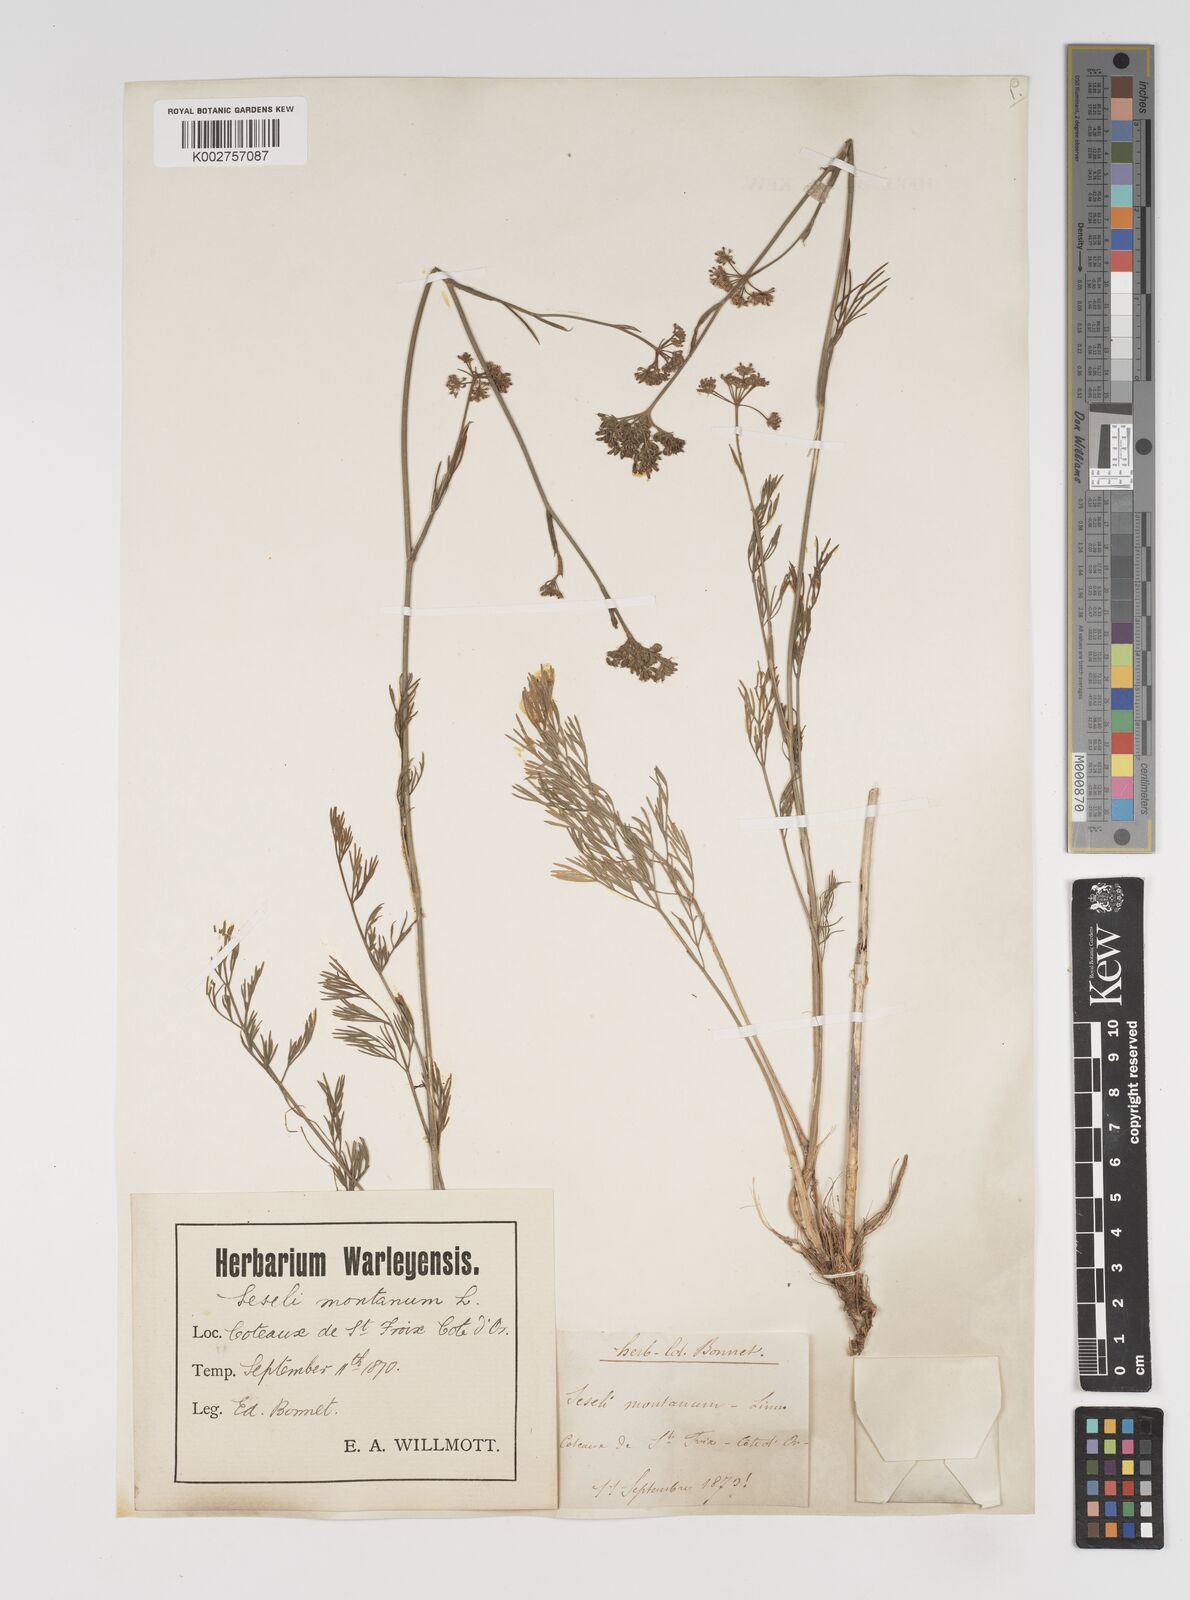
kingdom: Plantae
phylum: Tracheophyta
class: Magnoliopsida
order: Apiales
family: Apiaceae
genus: Seseli
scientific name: Seseli montanum
